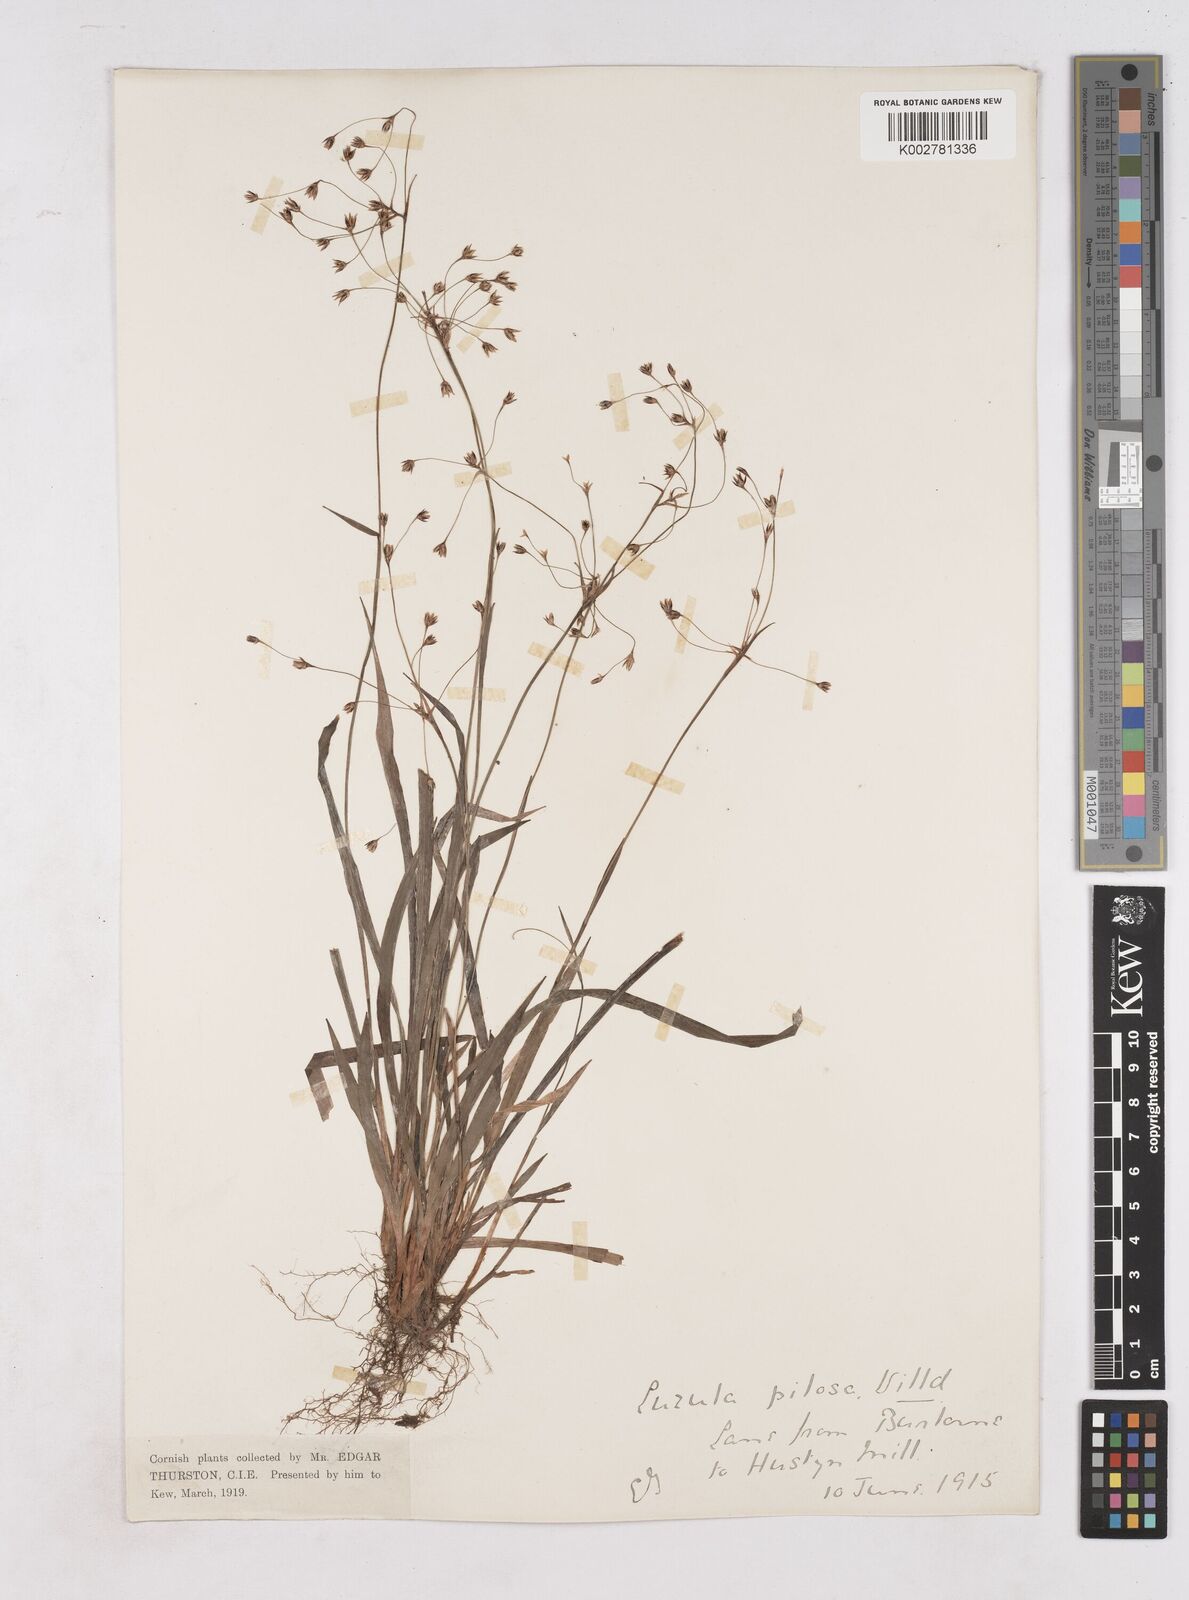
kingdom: Plantae
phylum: Tracheophyta
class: Liliopsida
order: Poales
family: Juncaceae
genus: Luzula
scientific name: Luzula pilosa
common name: Hairy wood-rush
